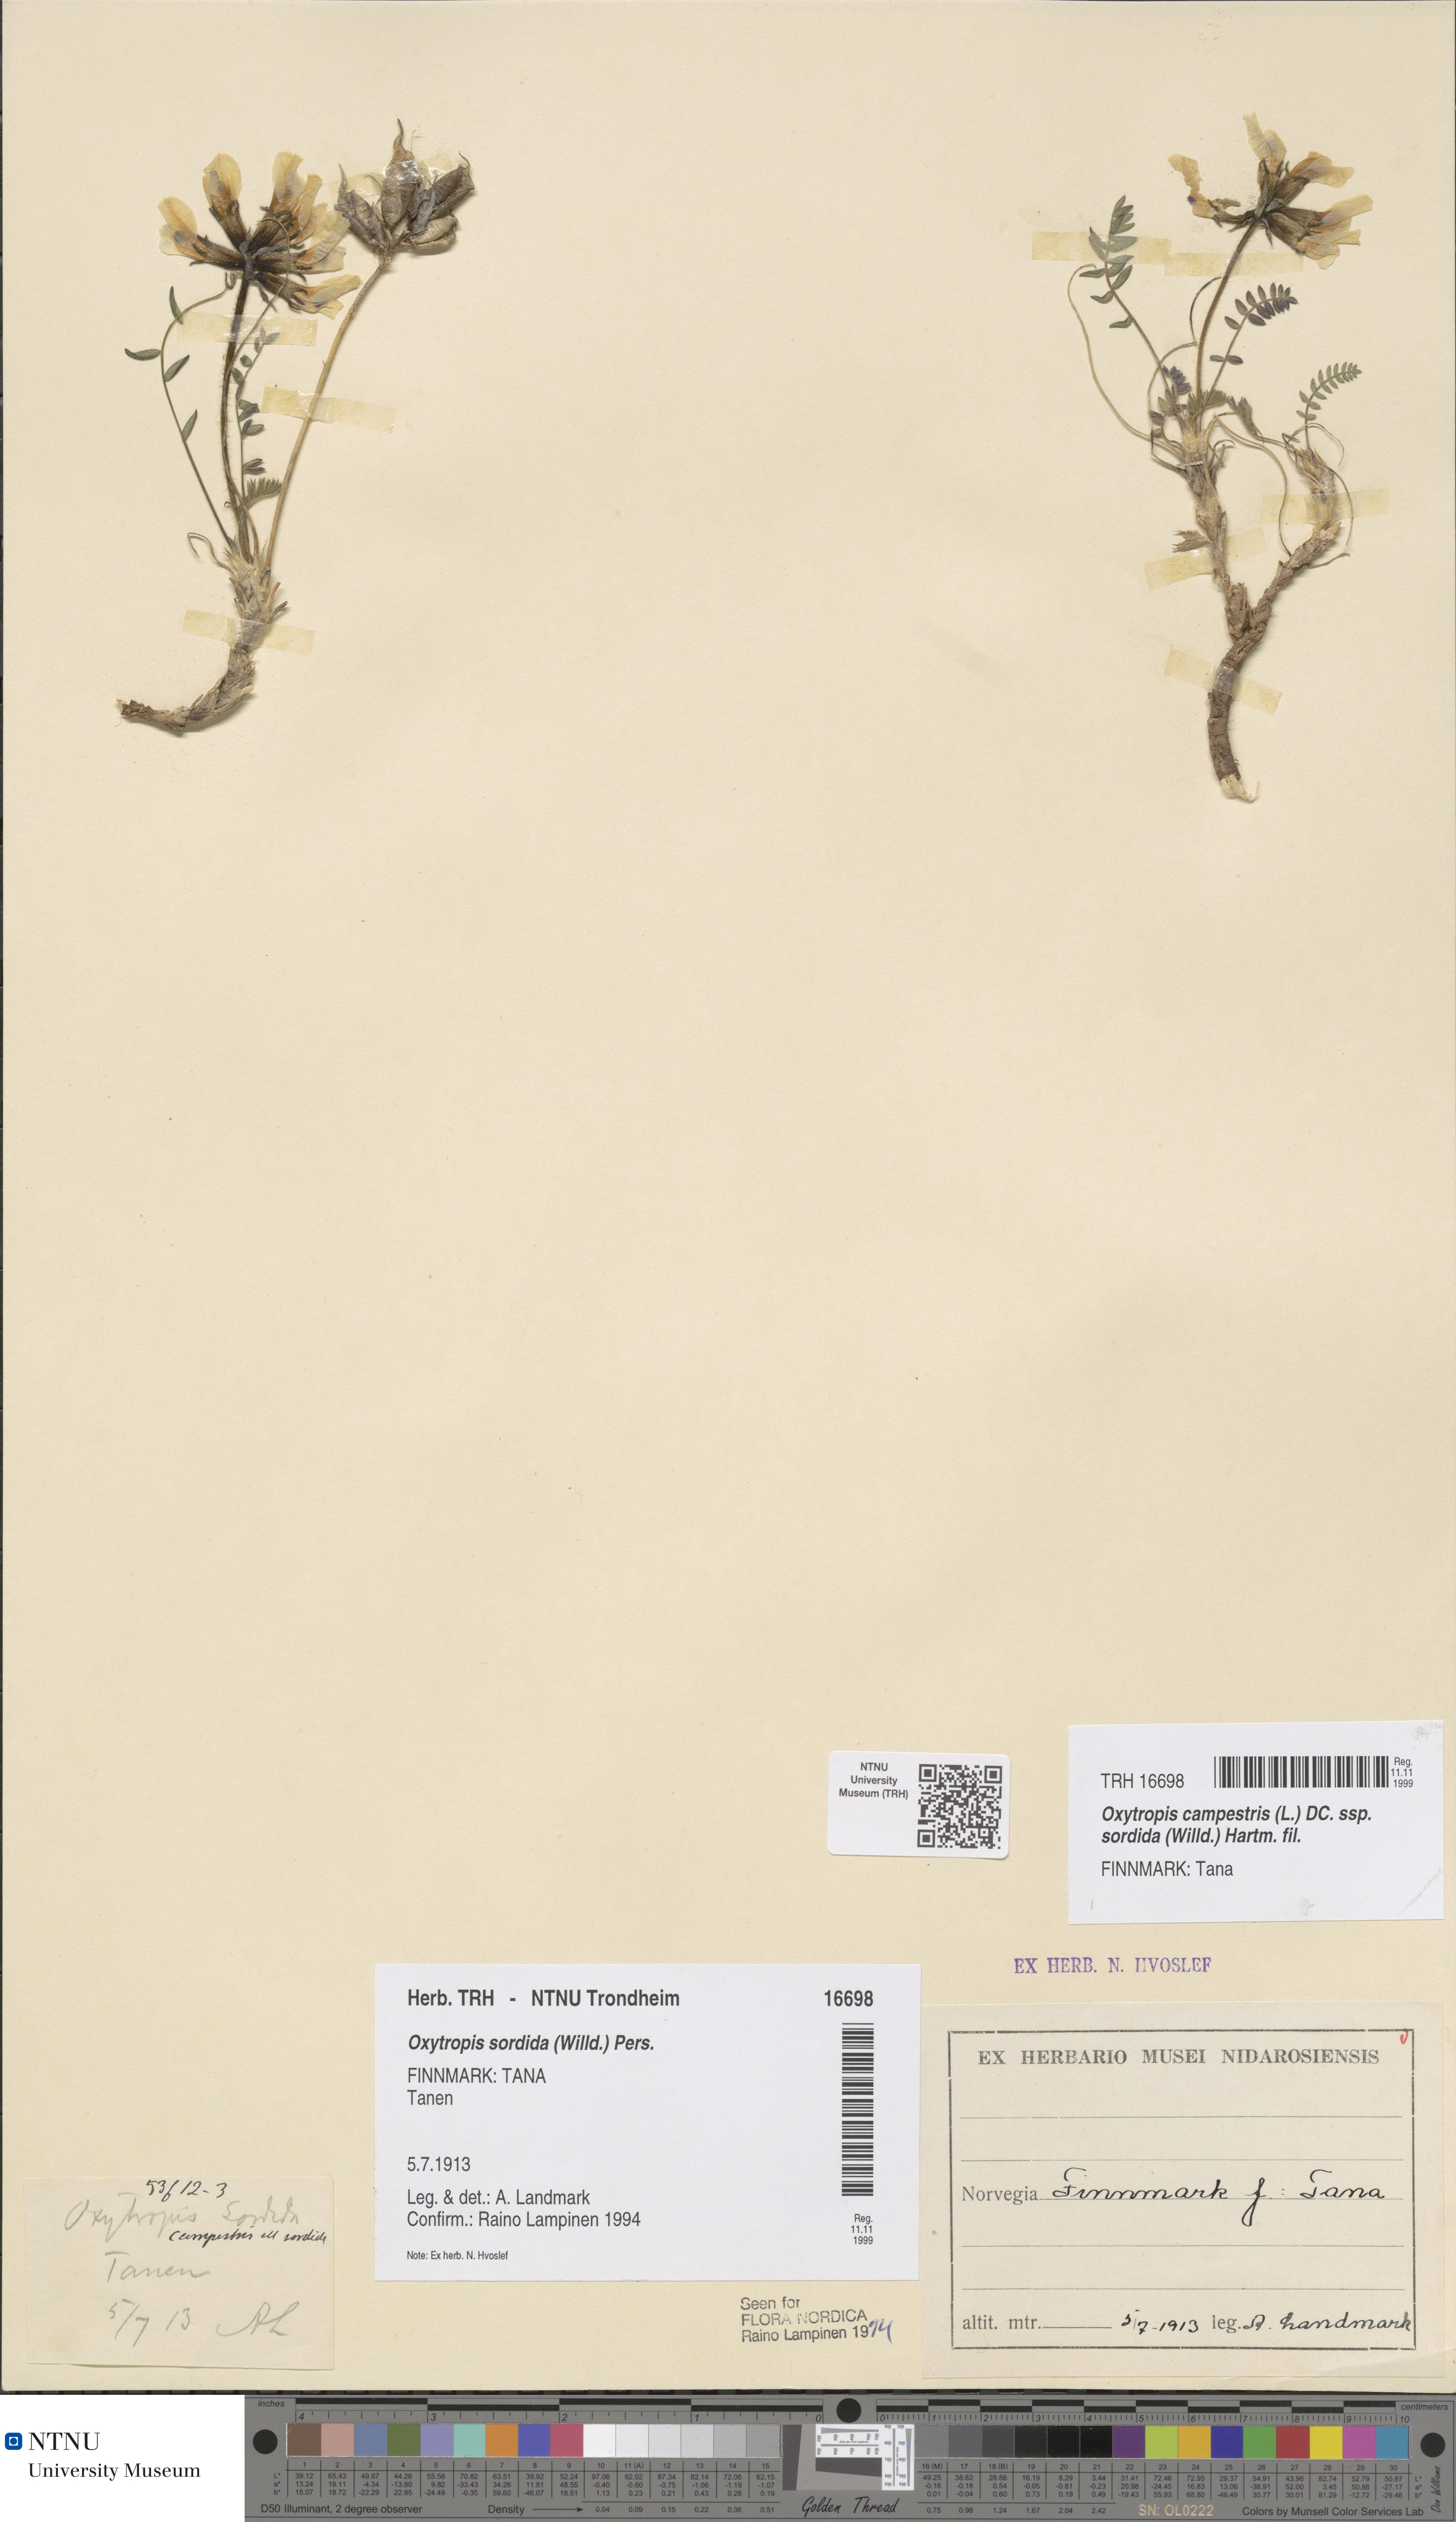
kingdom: Plantae
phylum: Tracheophyta
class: Magnoliopsida
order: Fabales
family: Fabaceae
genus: Oxytropis
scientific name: Oxytropis sordida
